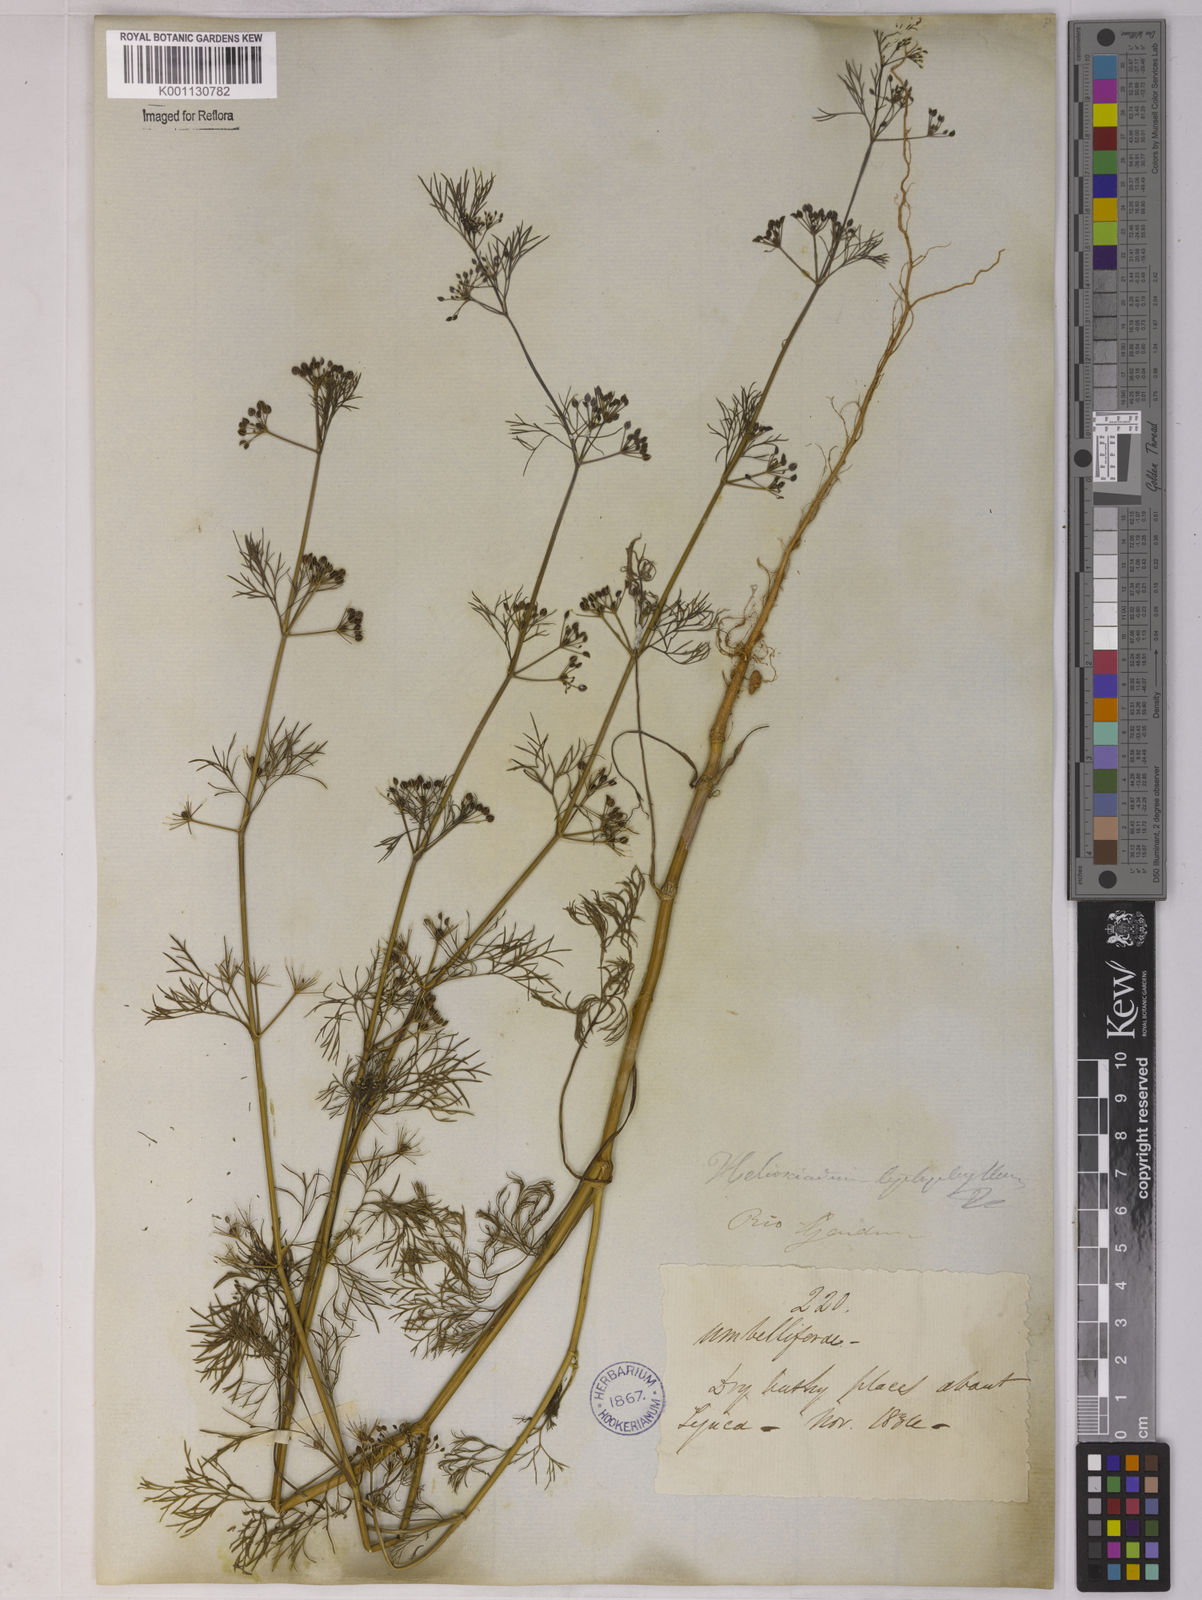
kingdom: Plantae
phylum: Tracheophyta
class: Magnoliopsida
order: Apiales
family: Apiaceae
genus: Apium
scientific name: Apium
